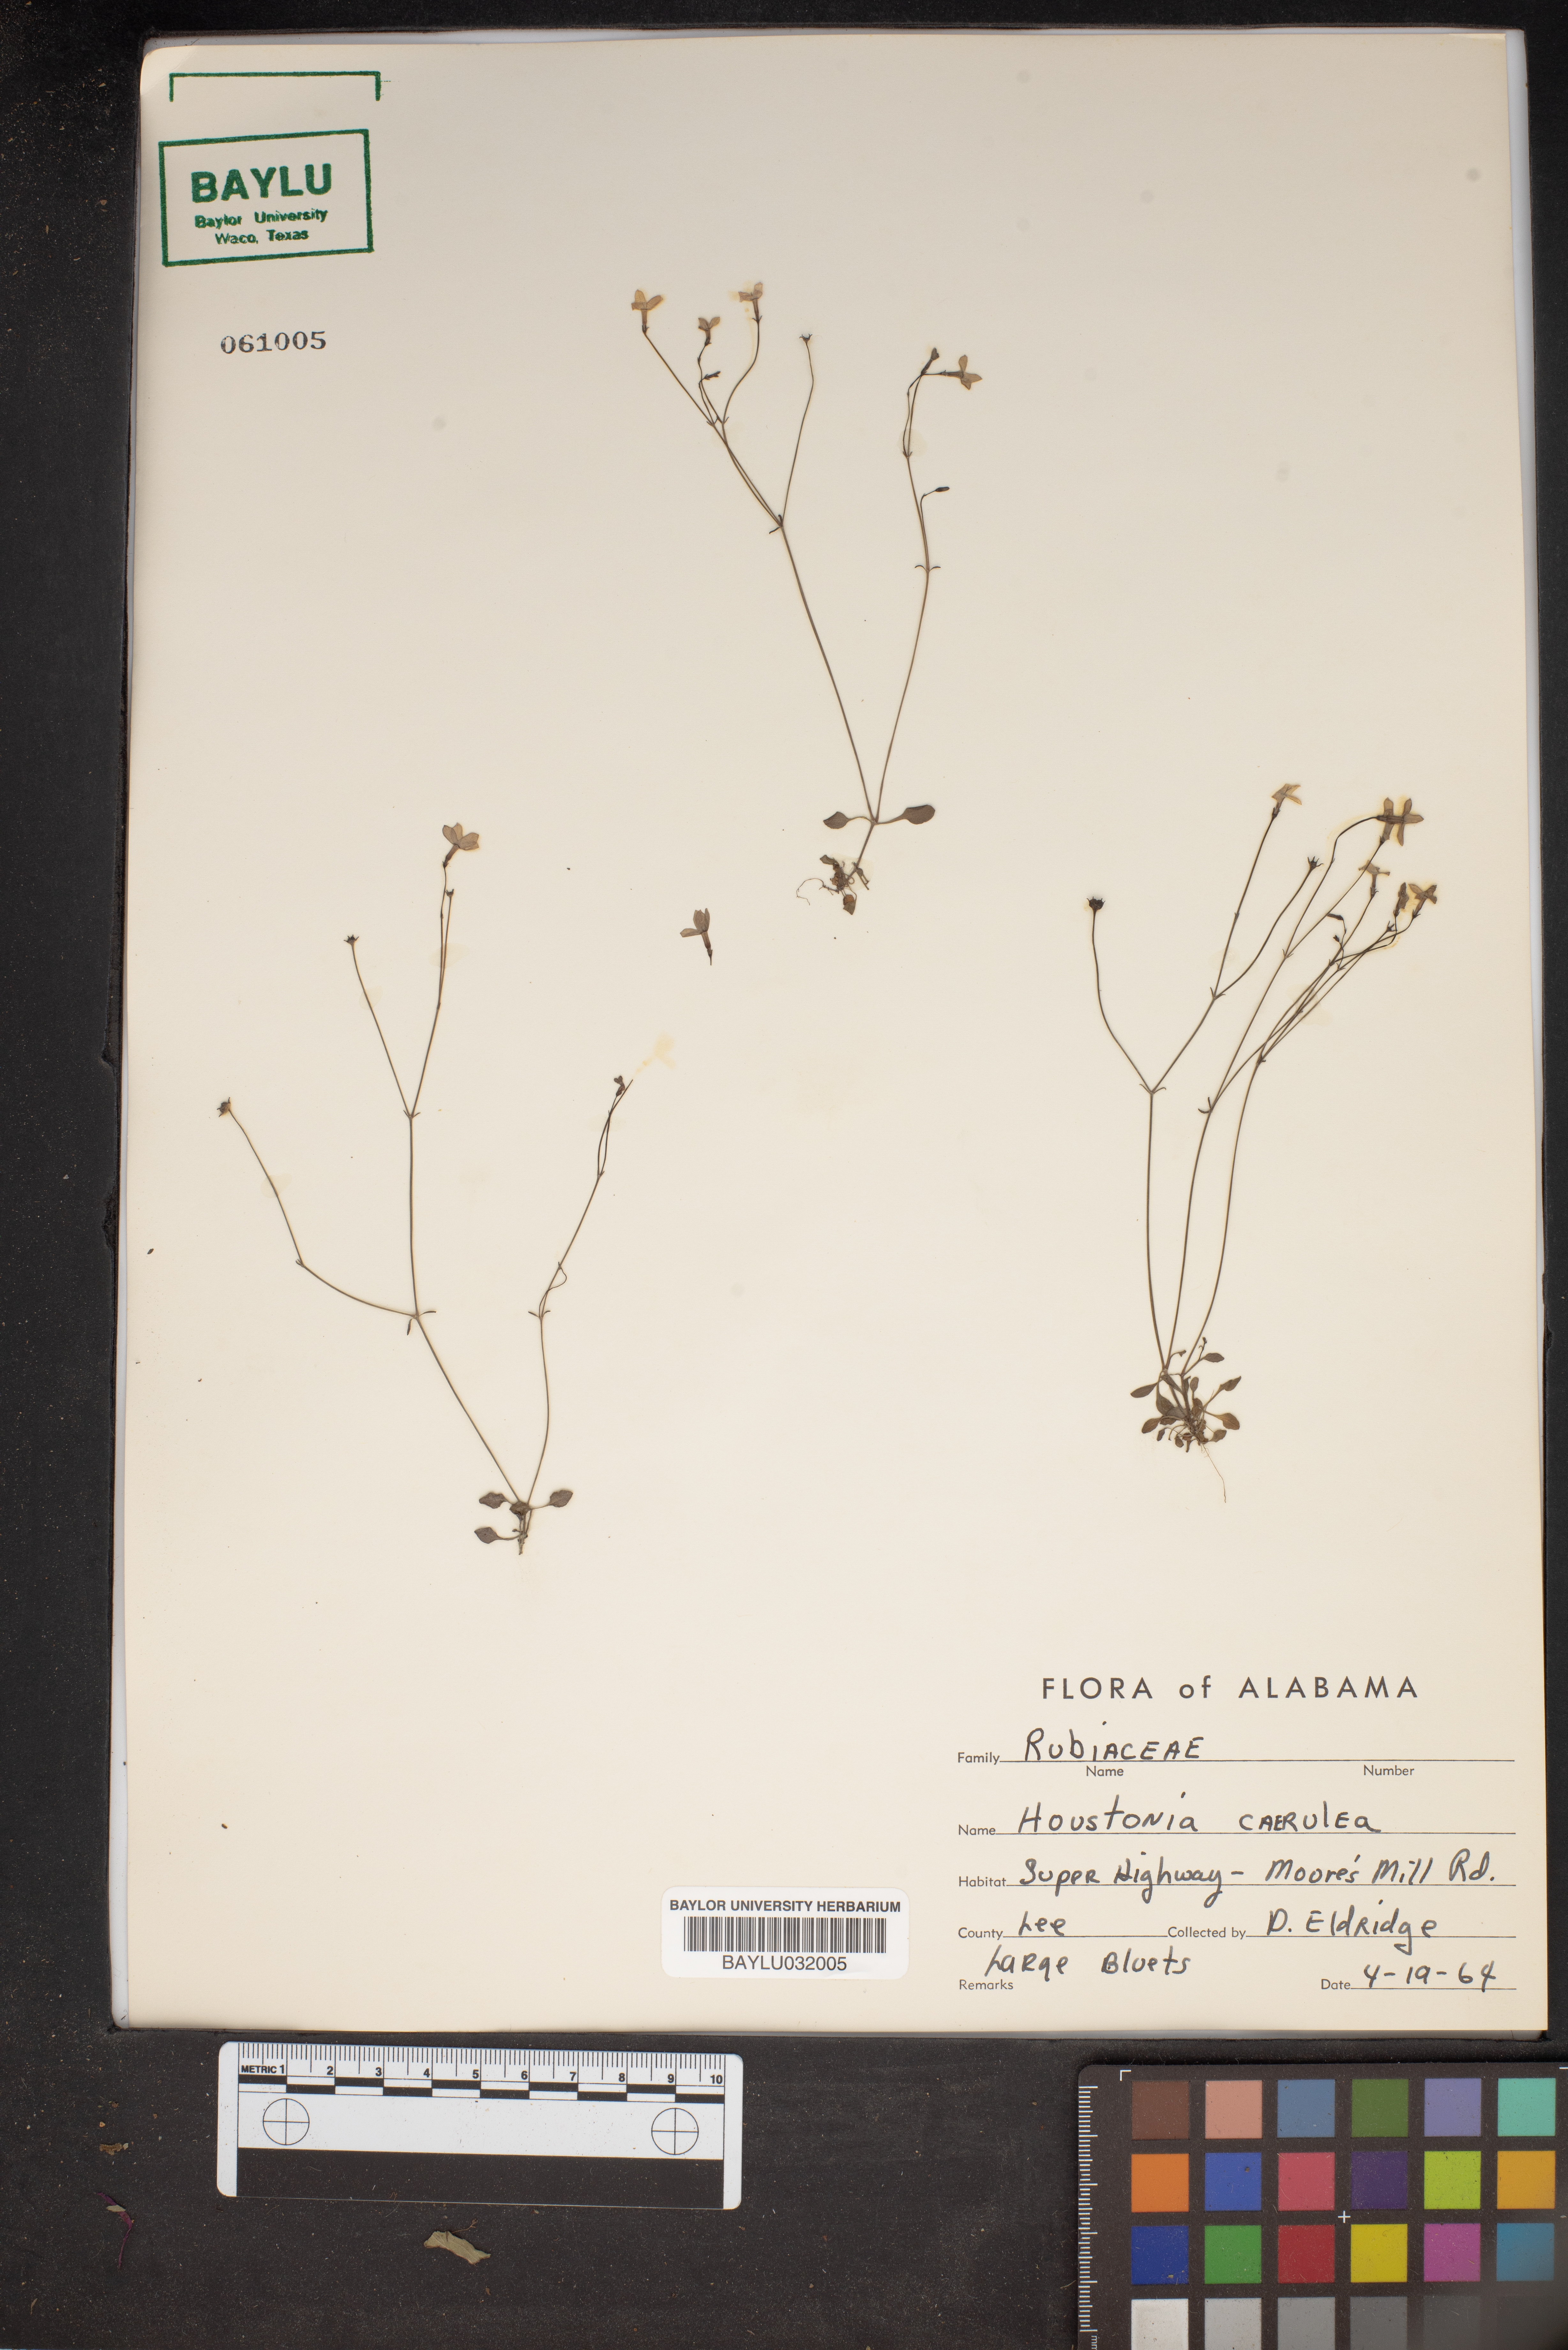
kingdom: Plantae
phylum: Tracheophyta
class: Magnoliopsida
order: Gentianales
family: Rubiaceae
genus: Houstonia
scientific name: Houstonia caerulea
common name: Bluets
